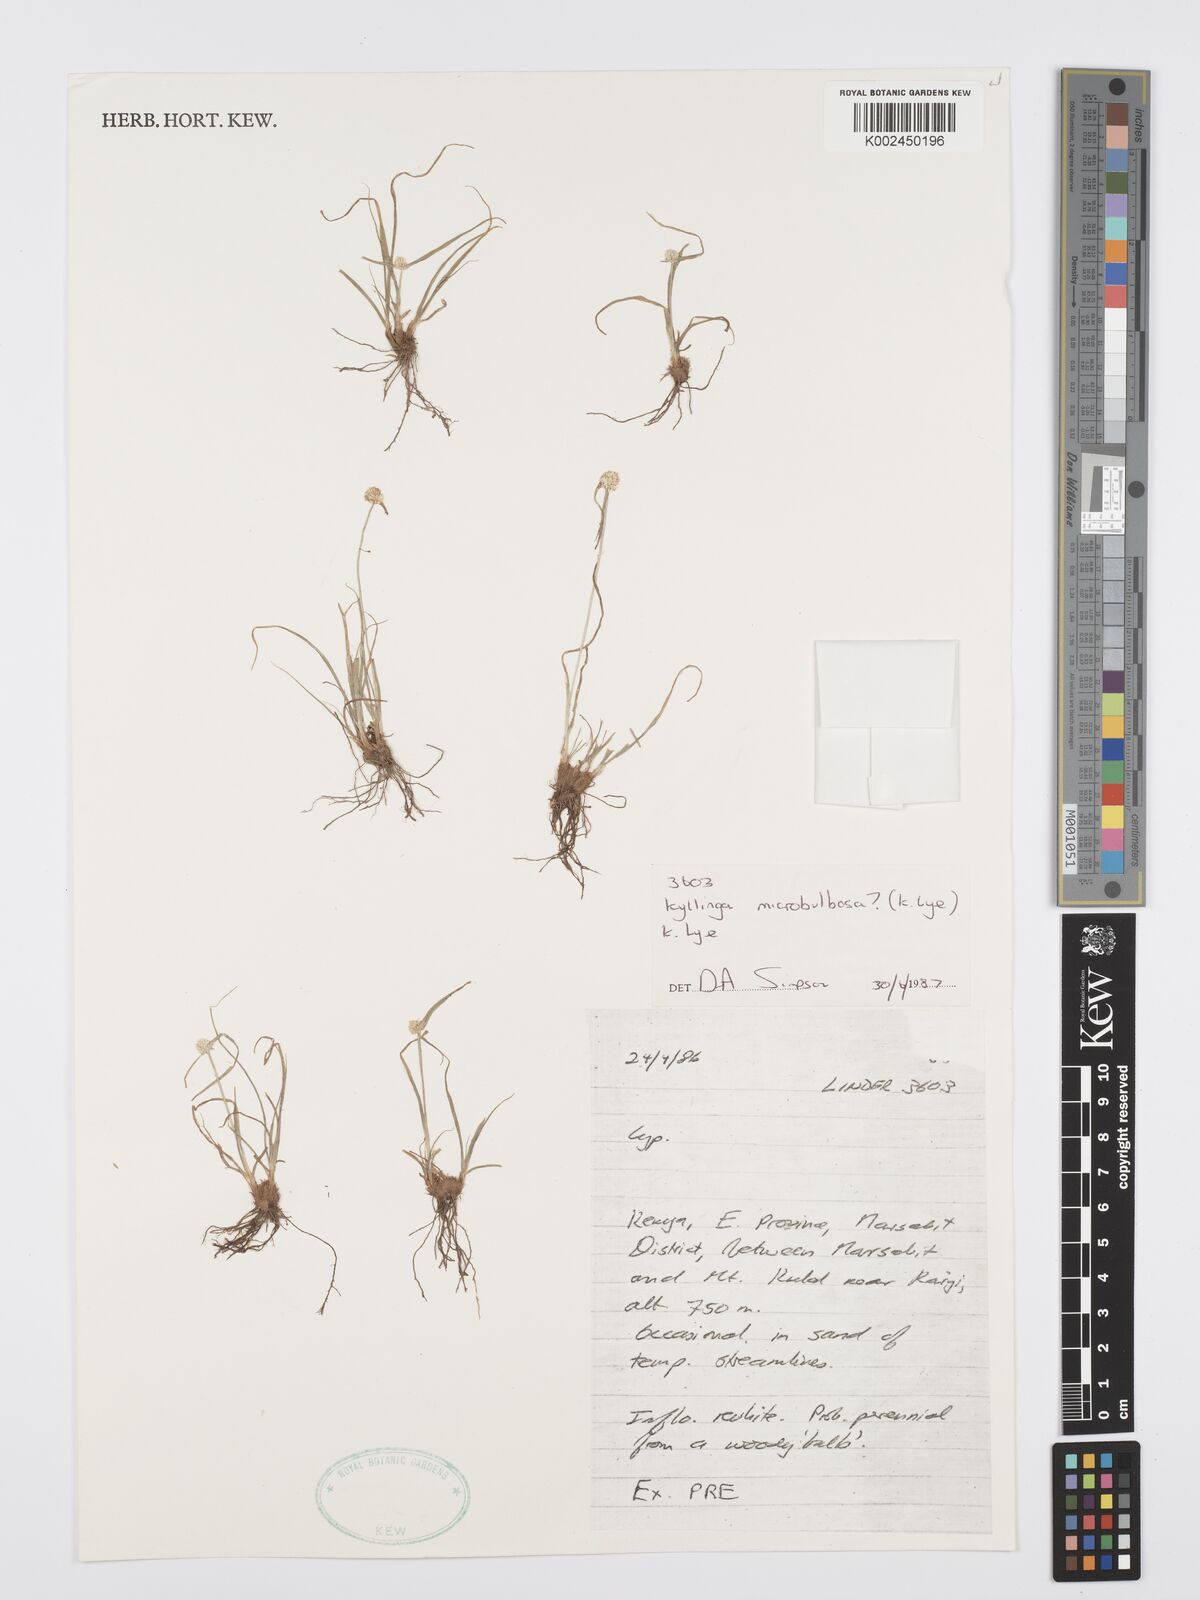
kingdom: Plantae
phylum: Tracheophyta
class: Liliopsida
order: Poales
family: Cyperaceae
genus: Cyperus
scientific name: Cyperus microbulbosus
